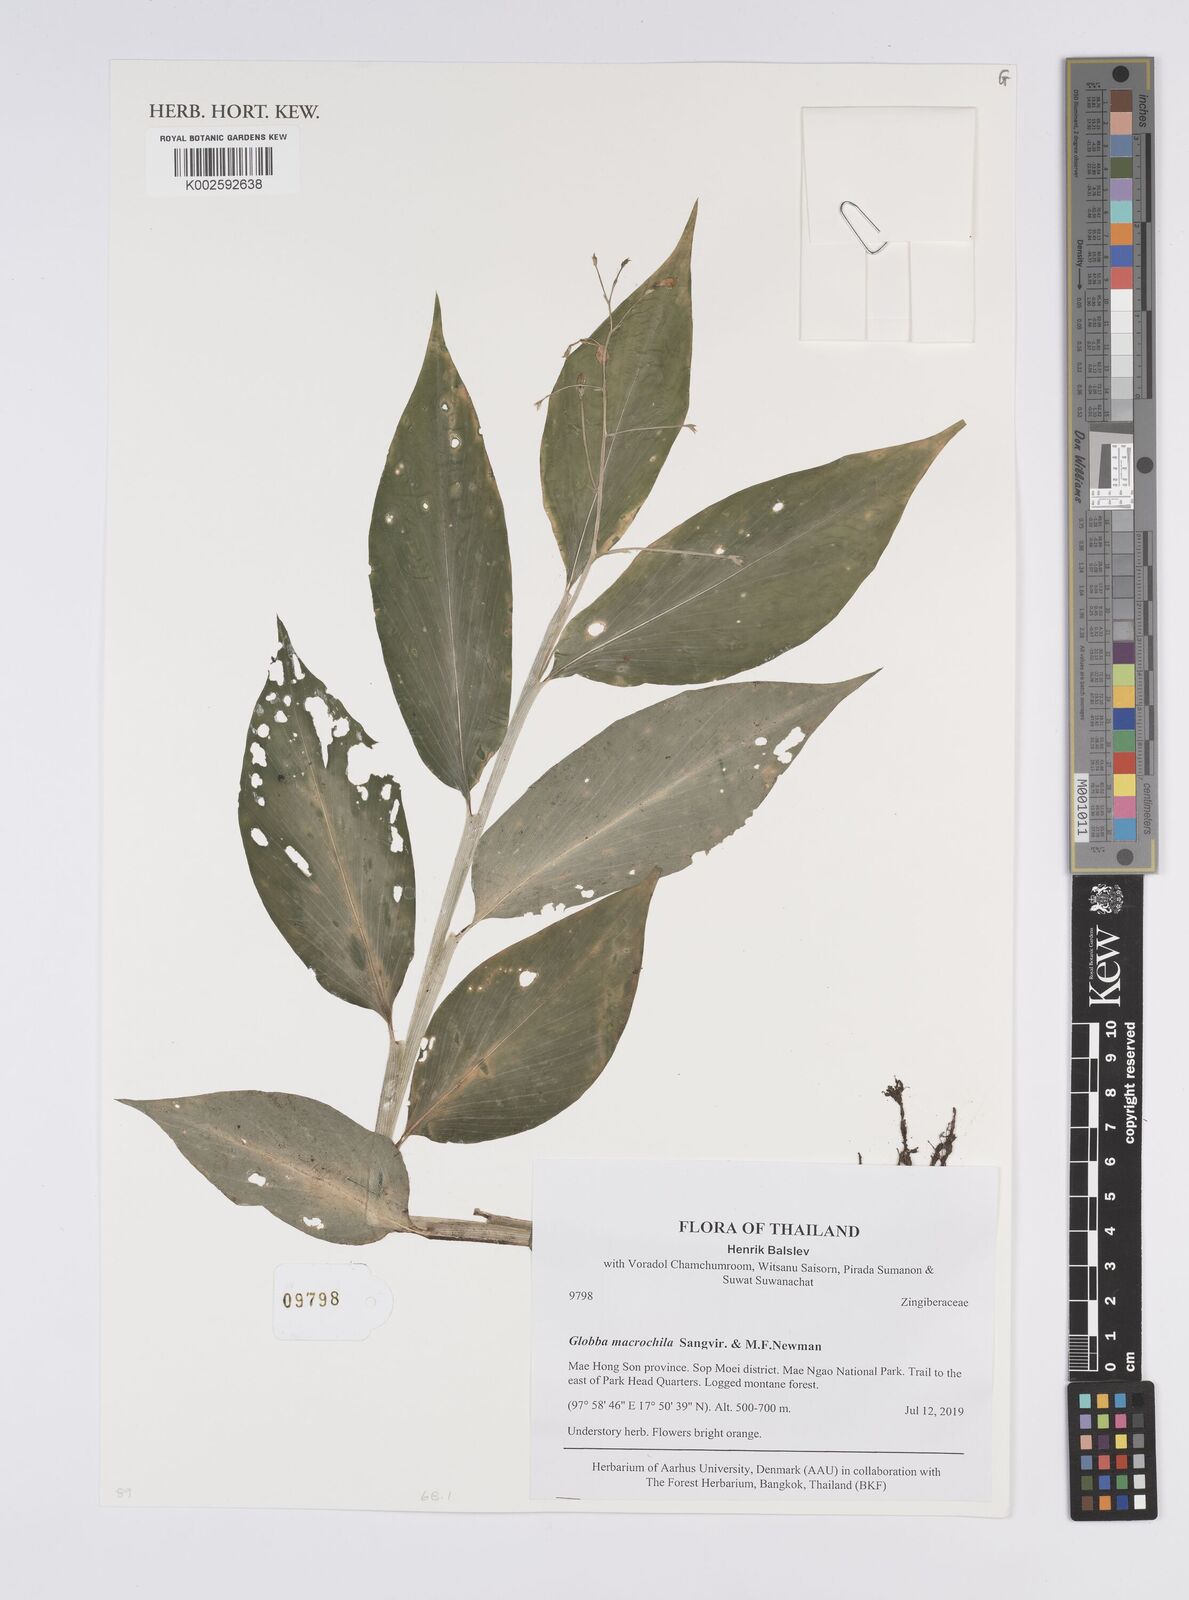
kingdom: Plantae
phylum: Tracheophyta
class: Liliopsida
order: Zingiberales
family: Zingiberaceae
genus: Globba
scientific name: Globba macrochila
